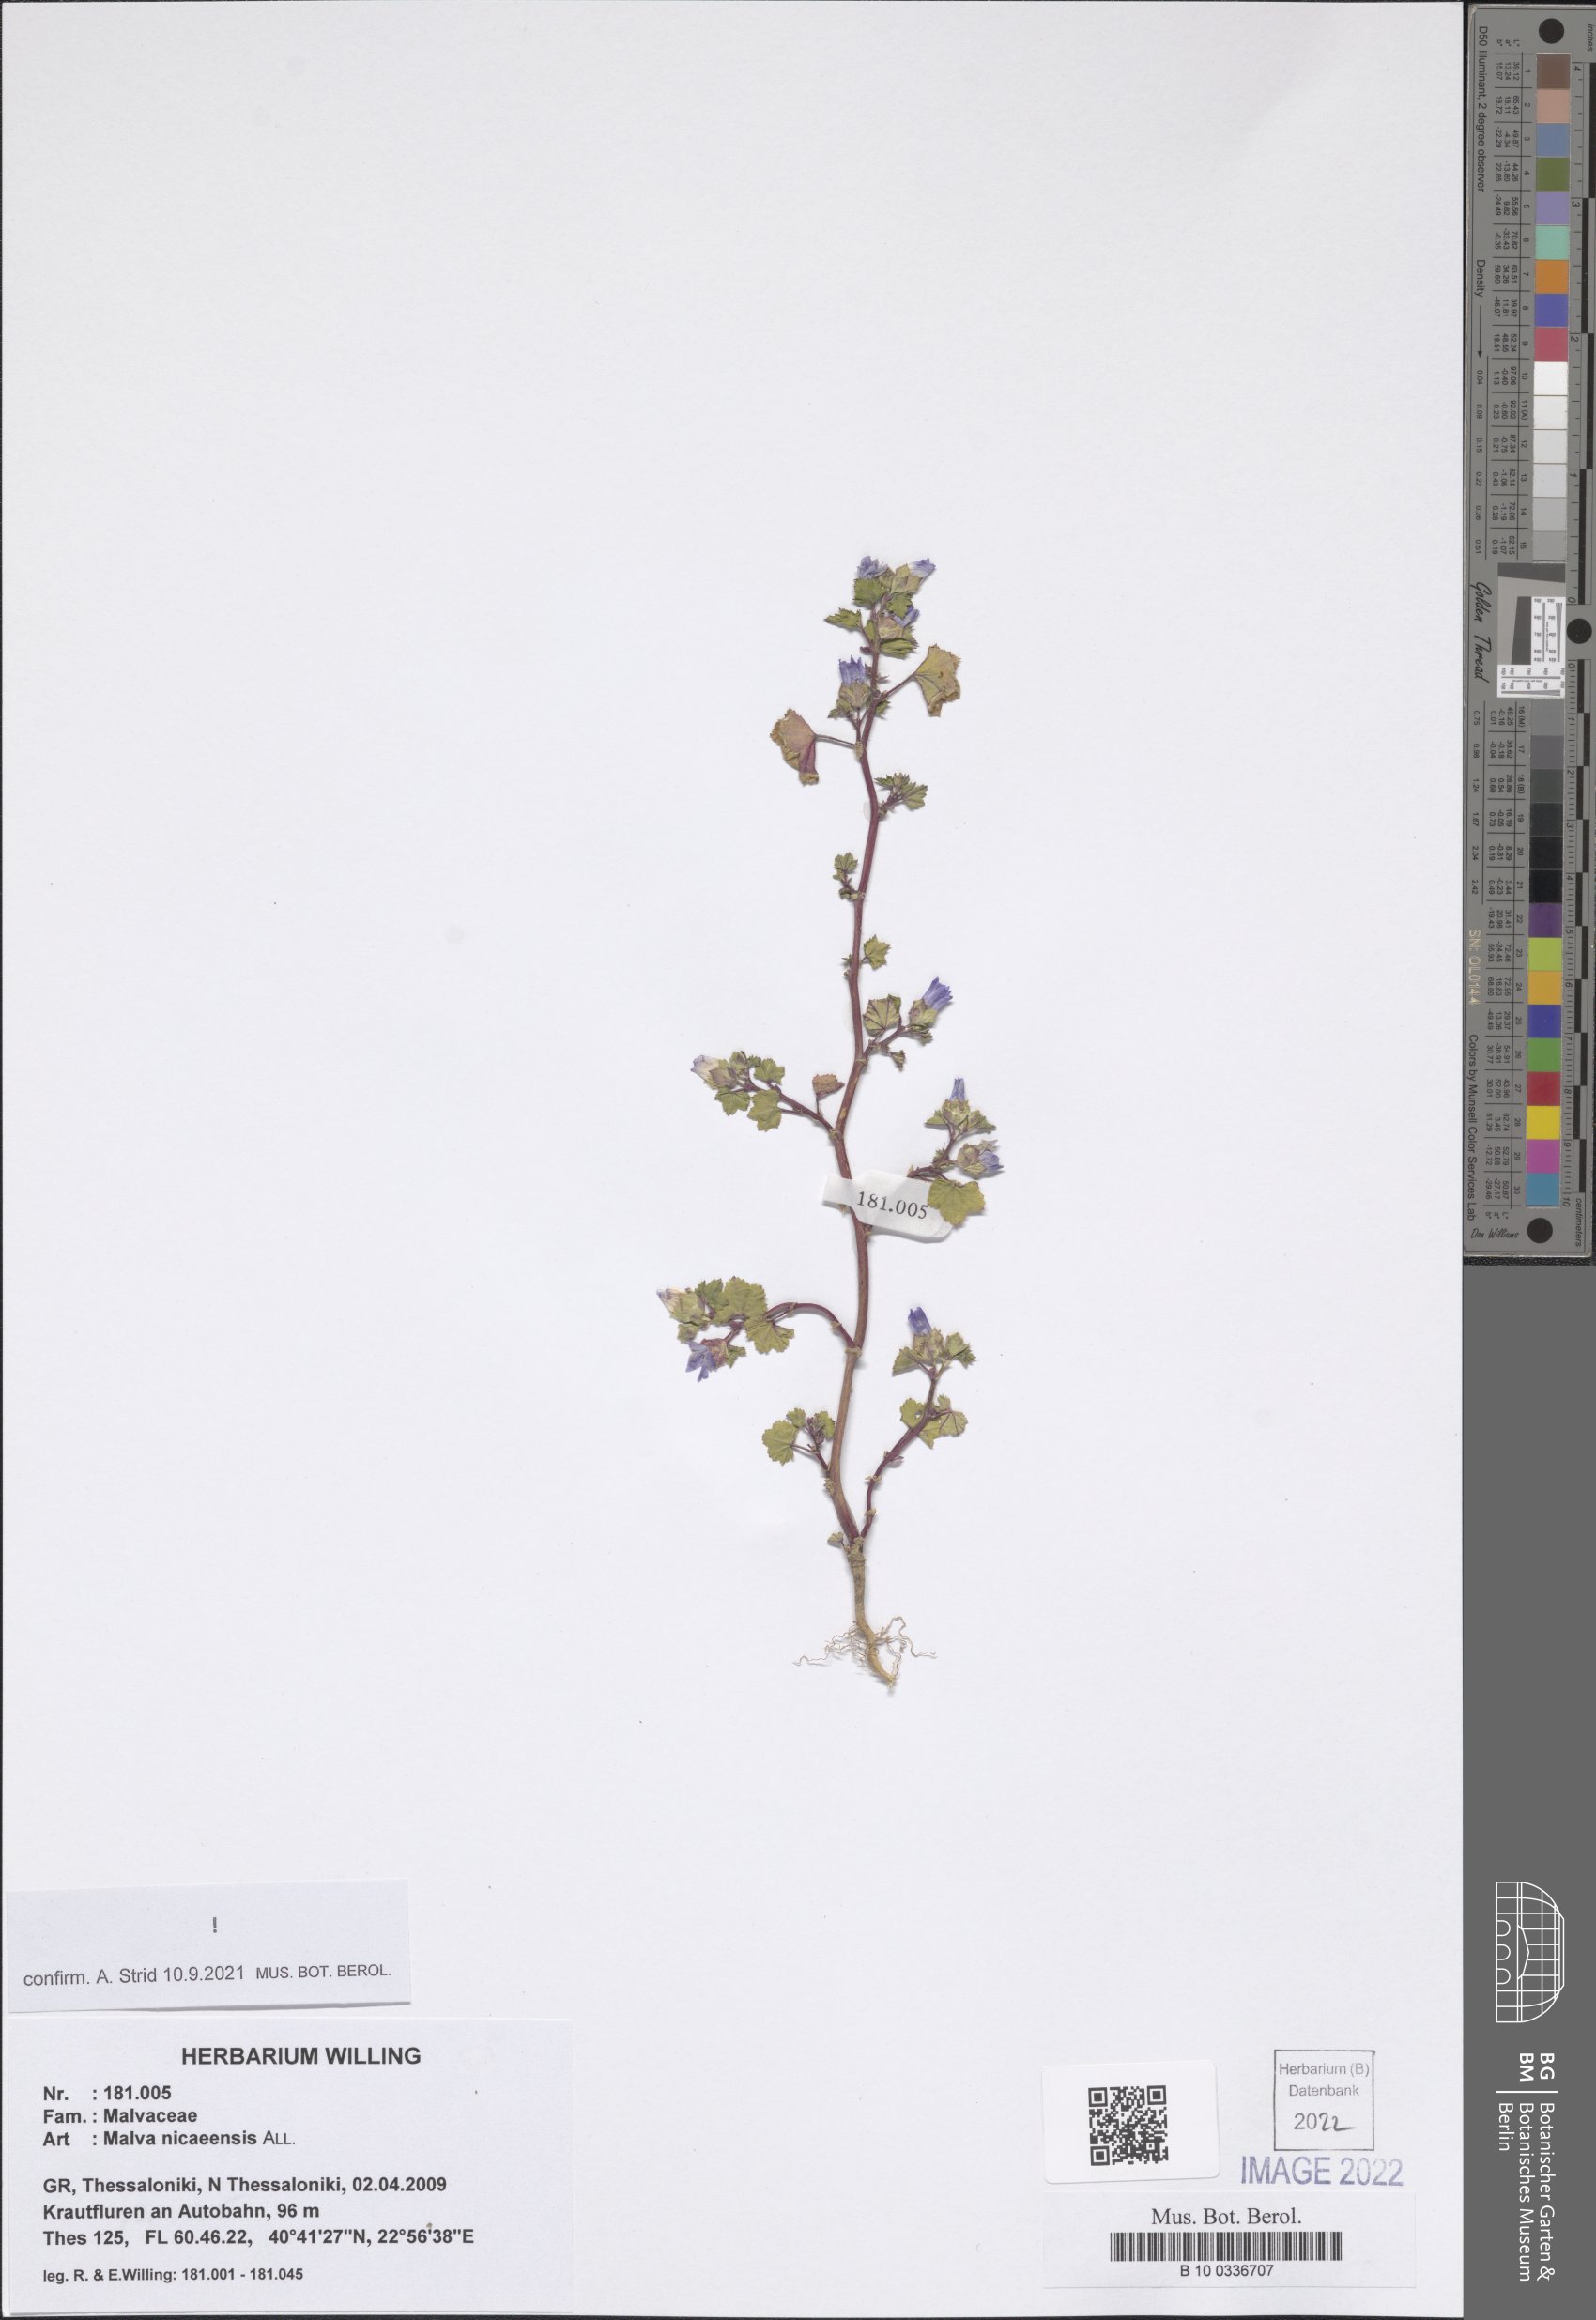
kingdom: Plantae
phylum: Tracheophyta
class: Magnoliopsida
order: Malvales
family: Malvaceae
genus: Malva
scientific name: Malva nicaeensis
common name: French mallow
